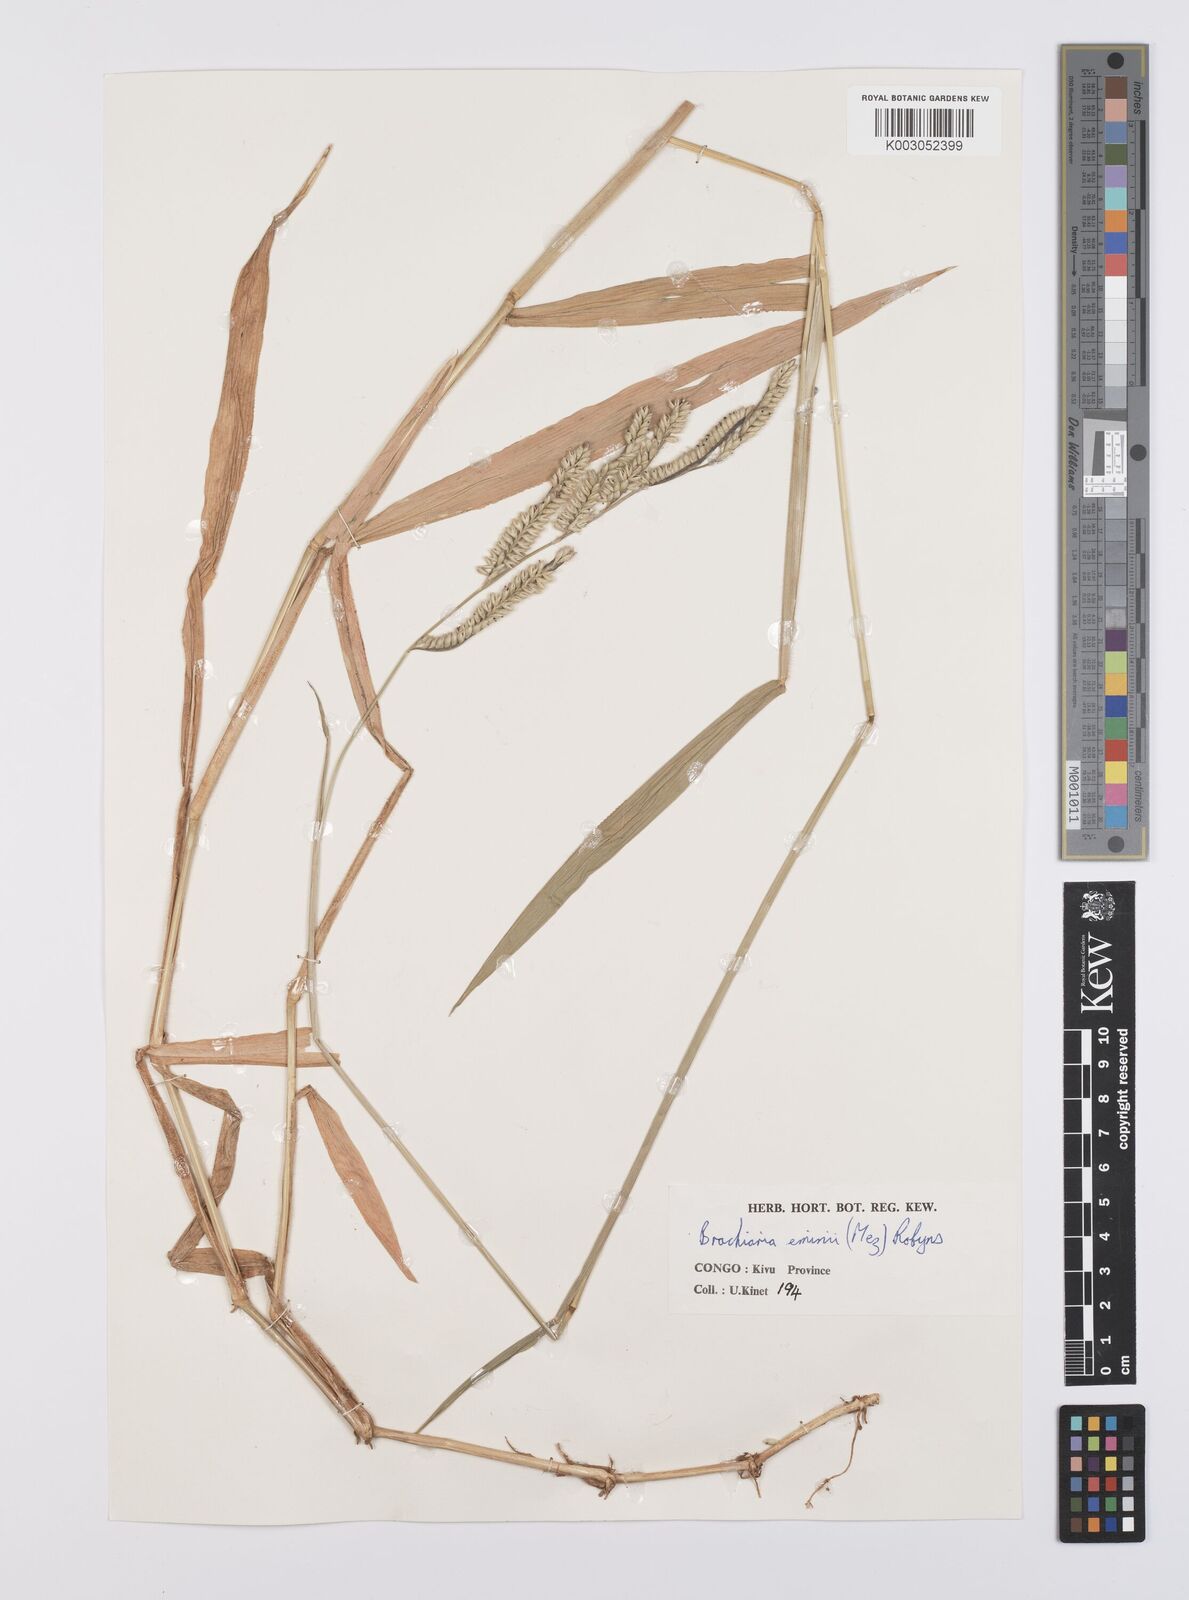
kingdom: Plantae
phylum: Tracheophyta
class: Liliopsida
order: Poales
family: Poaceae
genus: Urochloa
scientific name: Urochloa eminii
